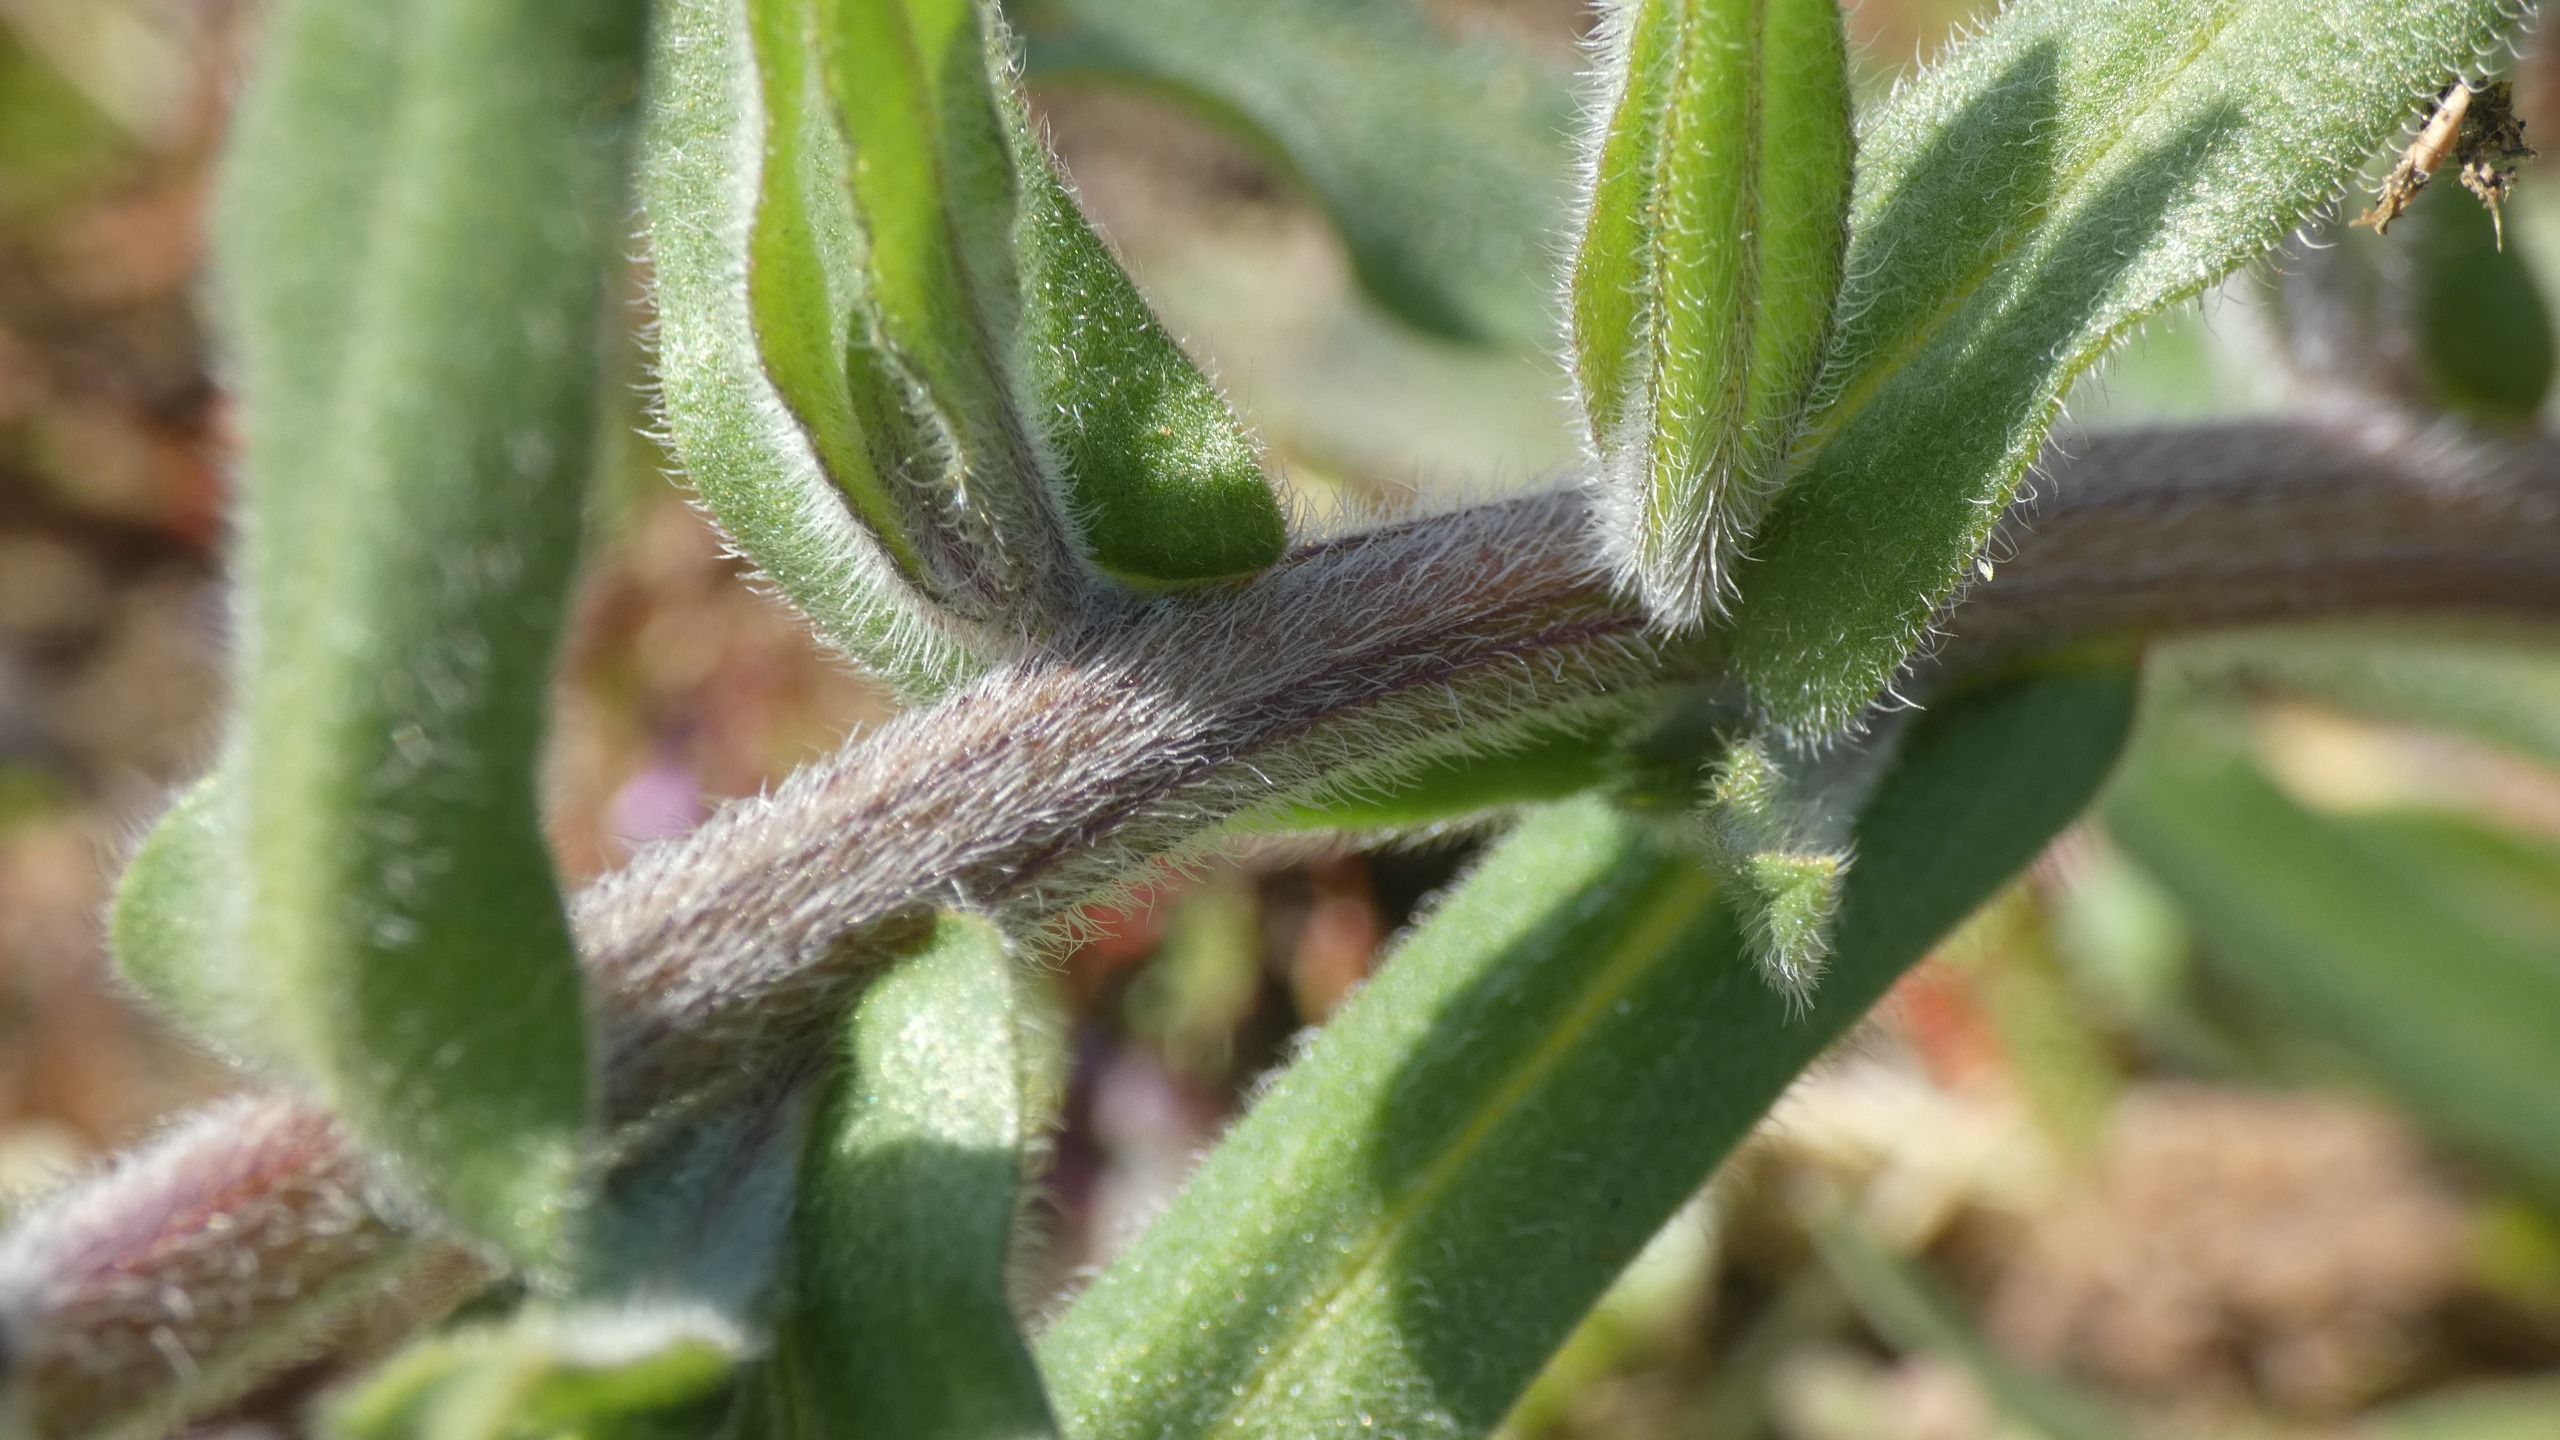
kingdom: Plantae
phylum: Tracheophyta
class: Magnoliopsida
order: Boraginales
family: Boraginaceae
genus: Anchusa
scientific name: Anchusa officinalis
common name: Læge-oksetunge
